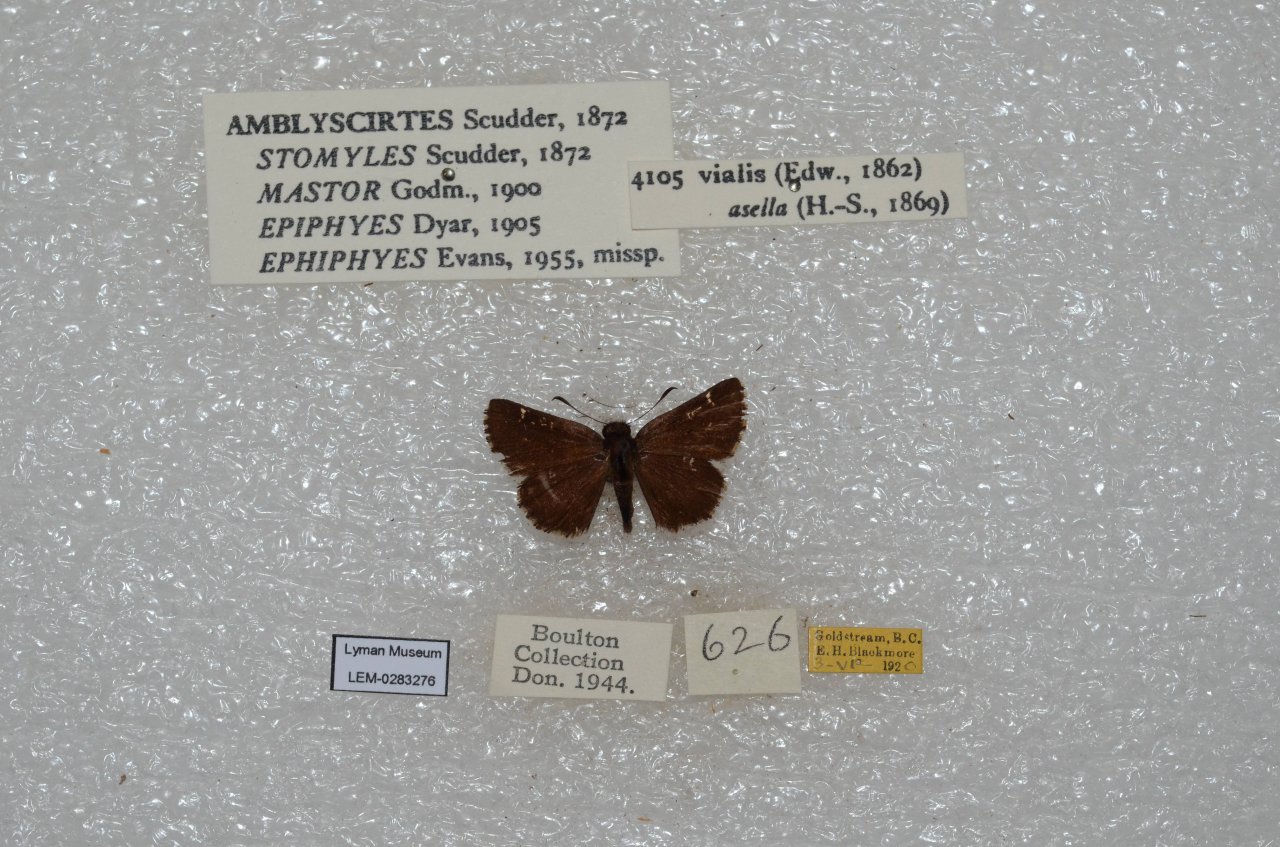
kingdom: Animalia
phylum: Arthropoda
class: Insecta
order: Lepidoptera
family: Hesperiidae
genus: Mastor
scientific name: Mastor vialis
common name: Common Roadside-Skipper
